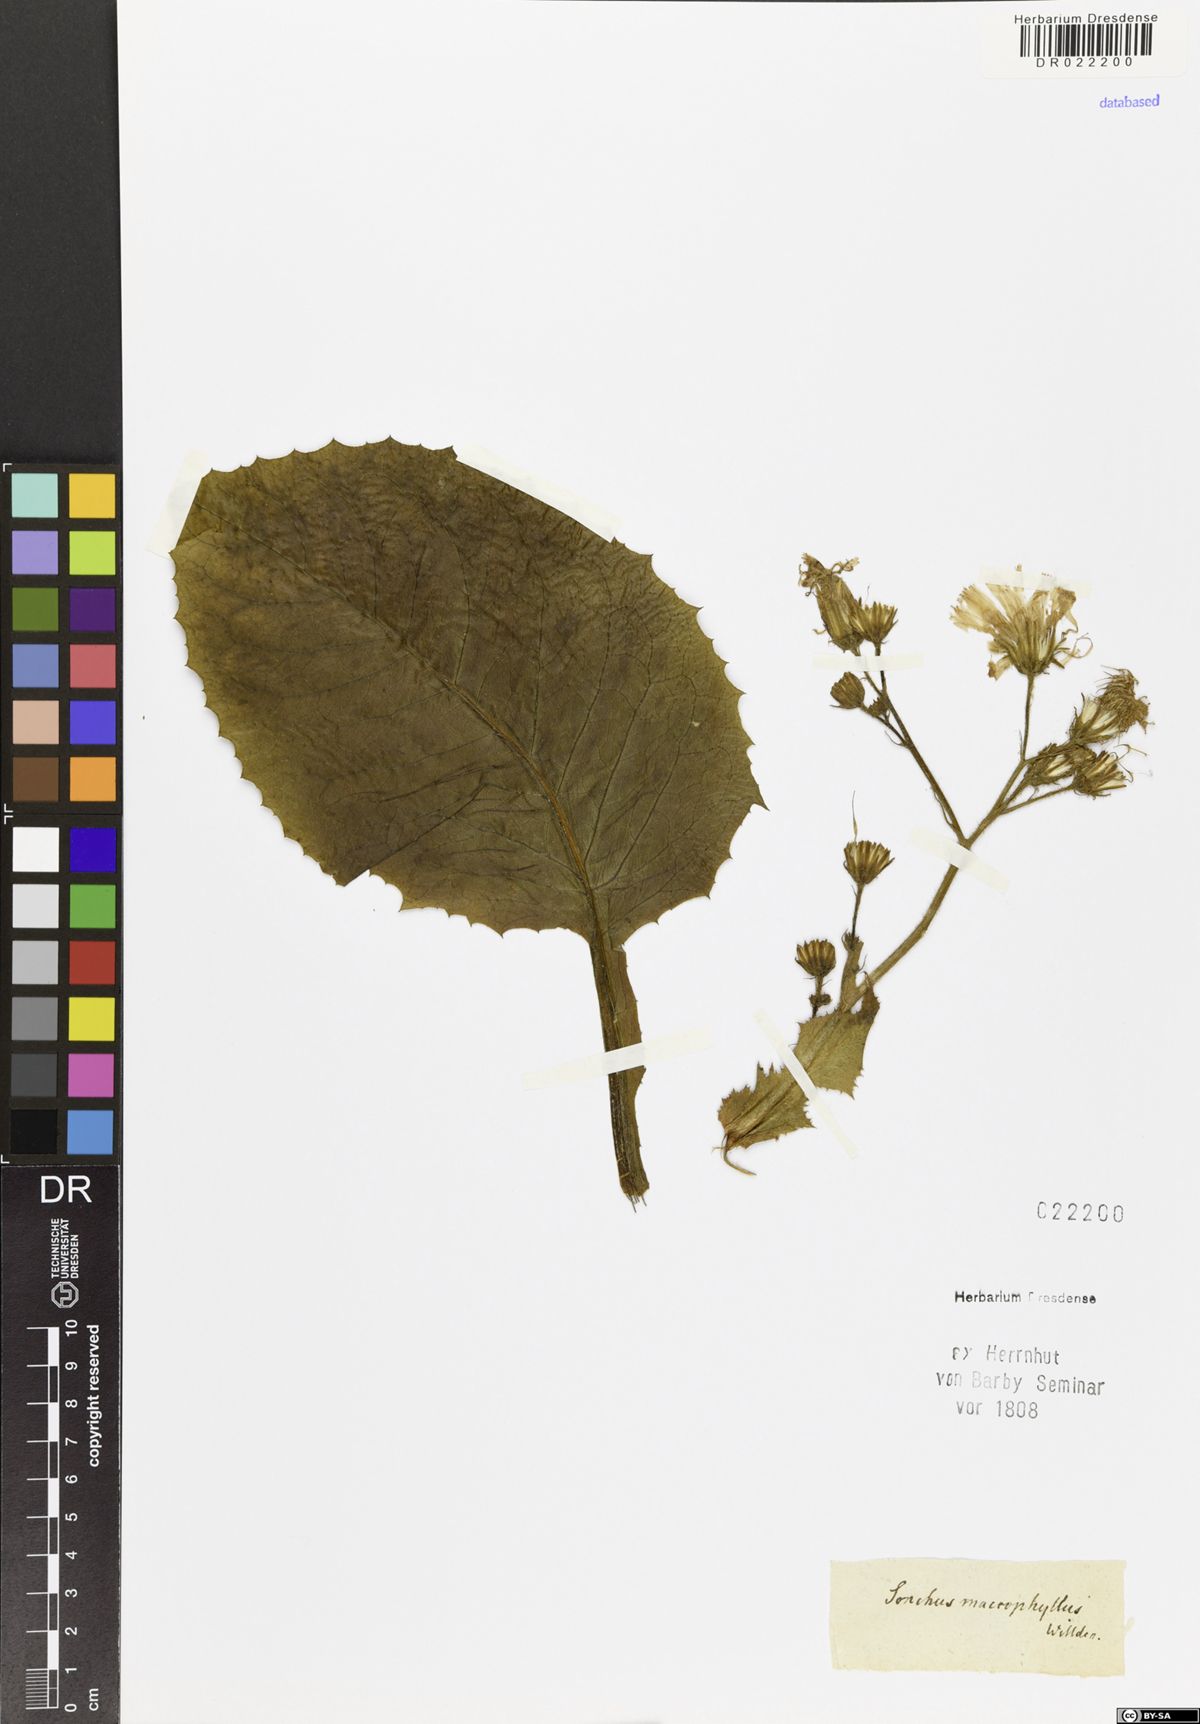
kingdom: Plantae
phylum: Tracheophyta
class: Magnoliopsida
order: Asterales
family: Asteraceae
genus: Lactuca
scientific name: Lactuca macrophylla
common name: Common blue-sow-thistle
